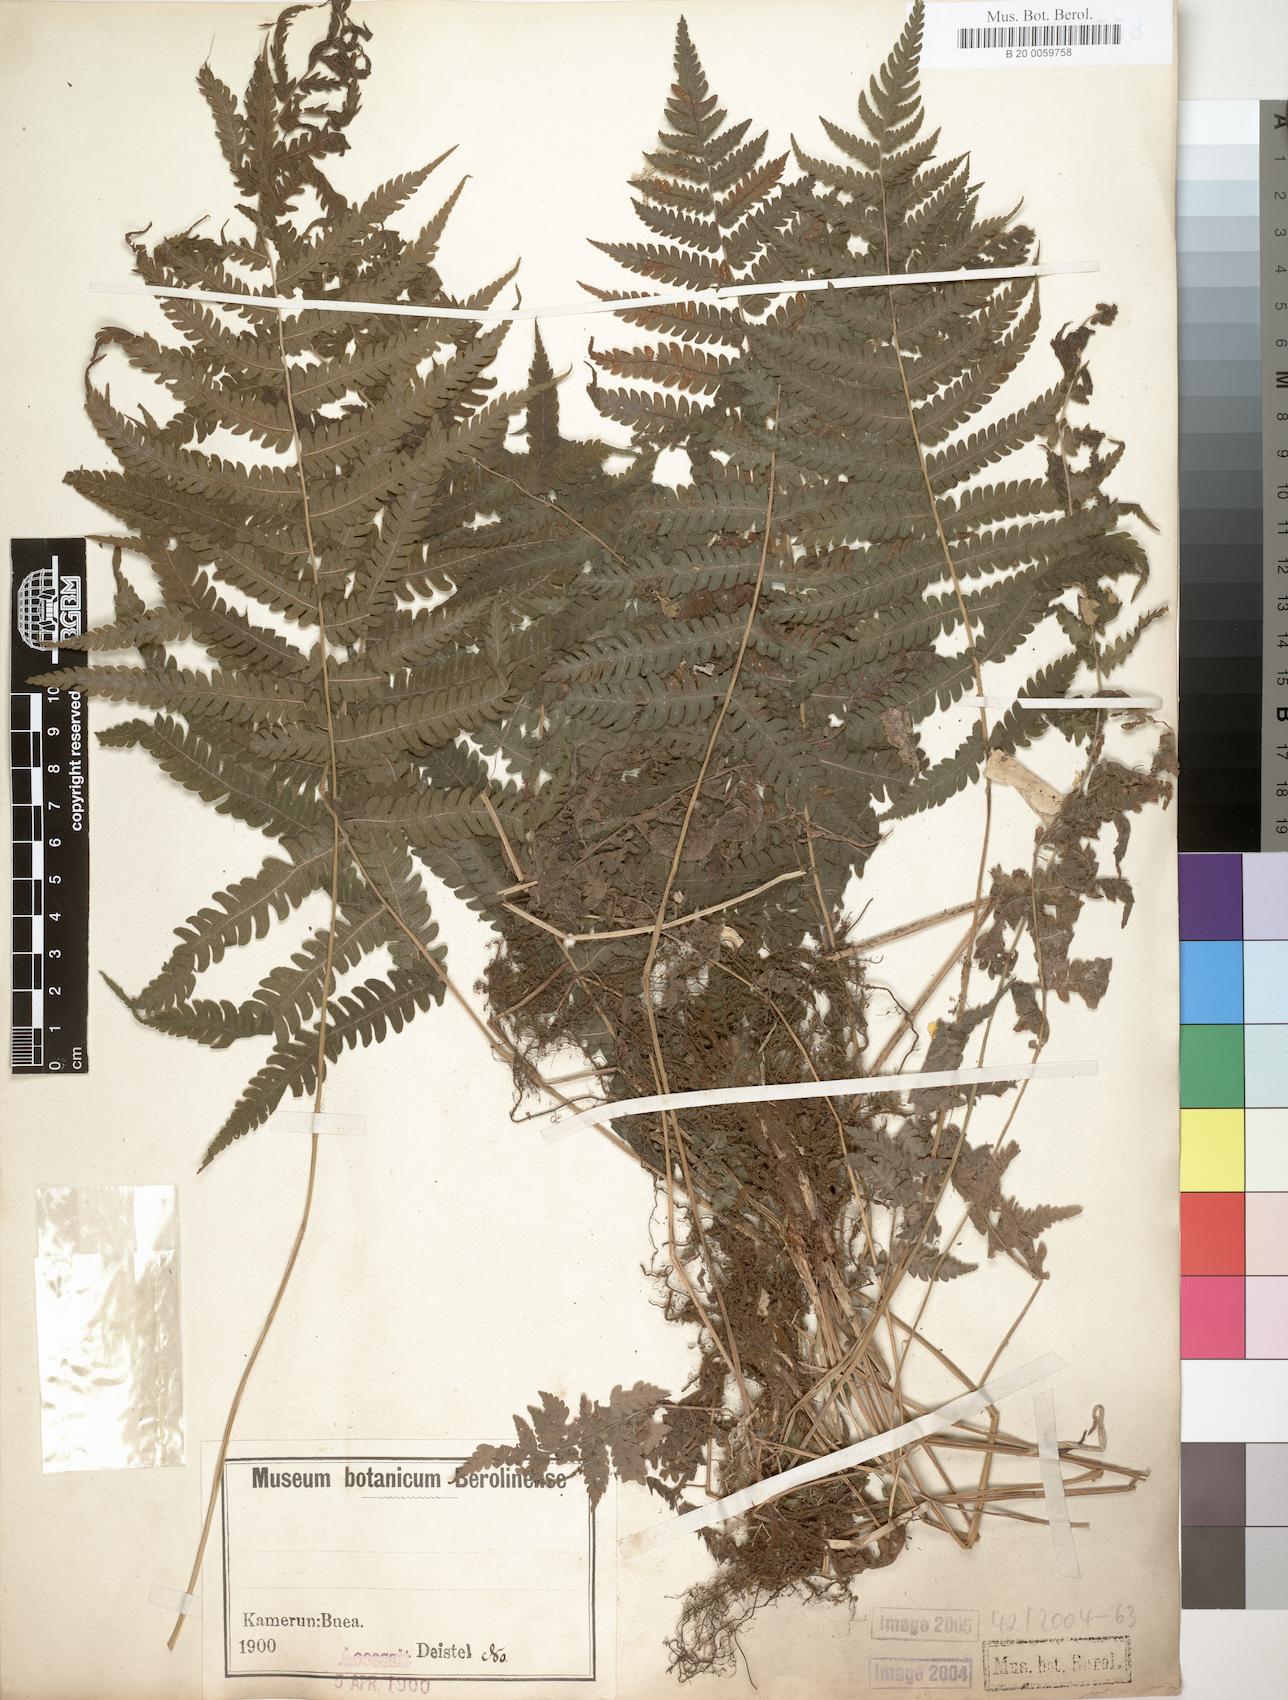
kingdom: Plantae
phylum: Tracheophyta
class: Polypodiopsida
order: Polypodiales
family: Thelypteridaceae
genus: Christella
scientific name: Christella dentata
